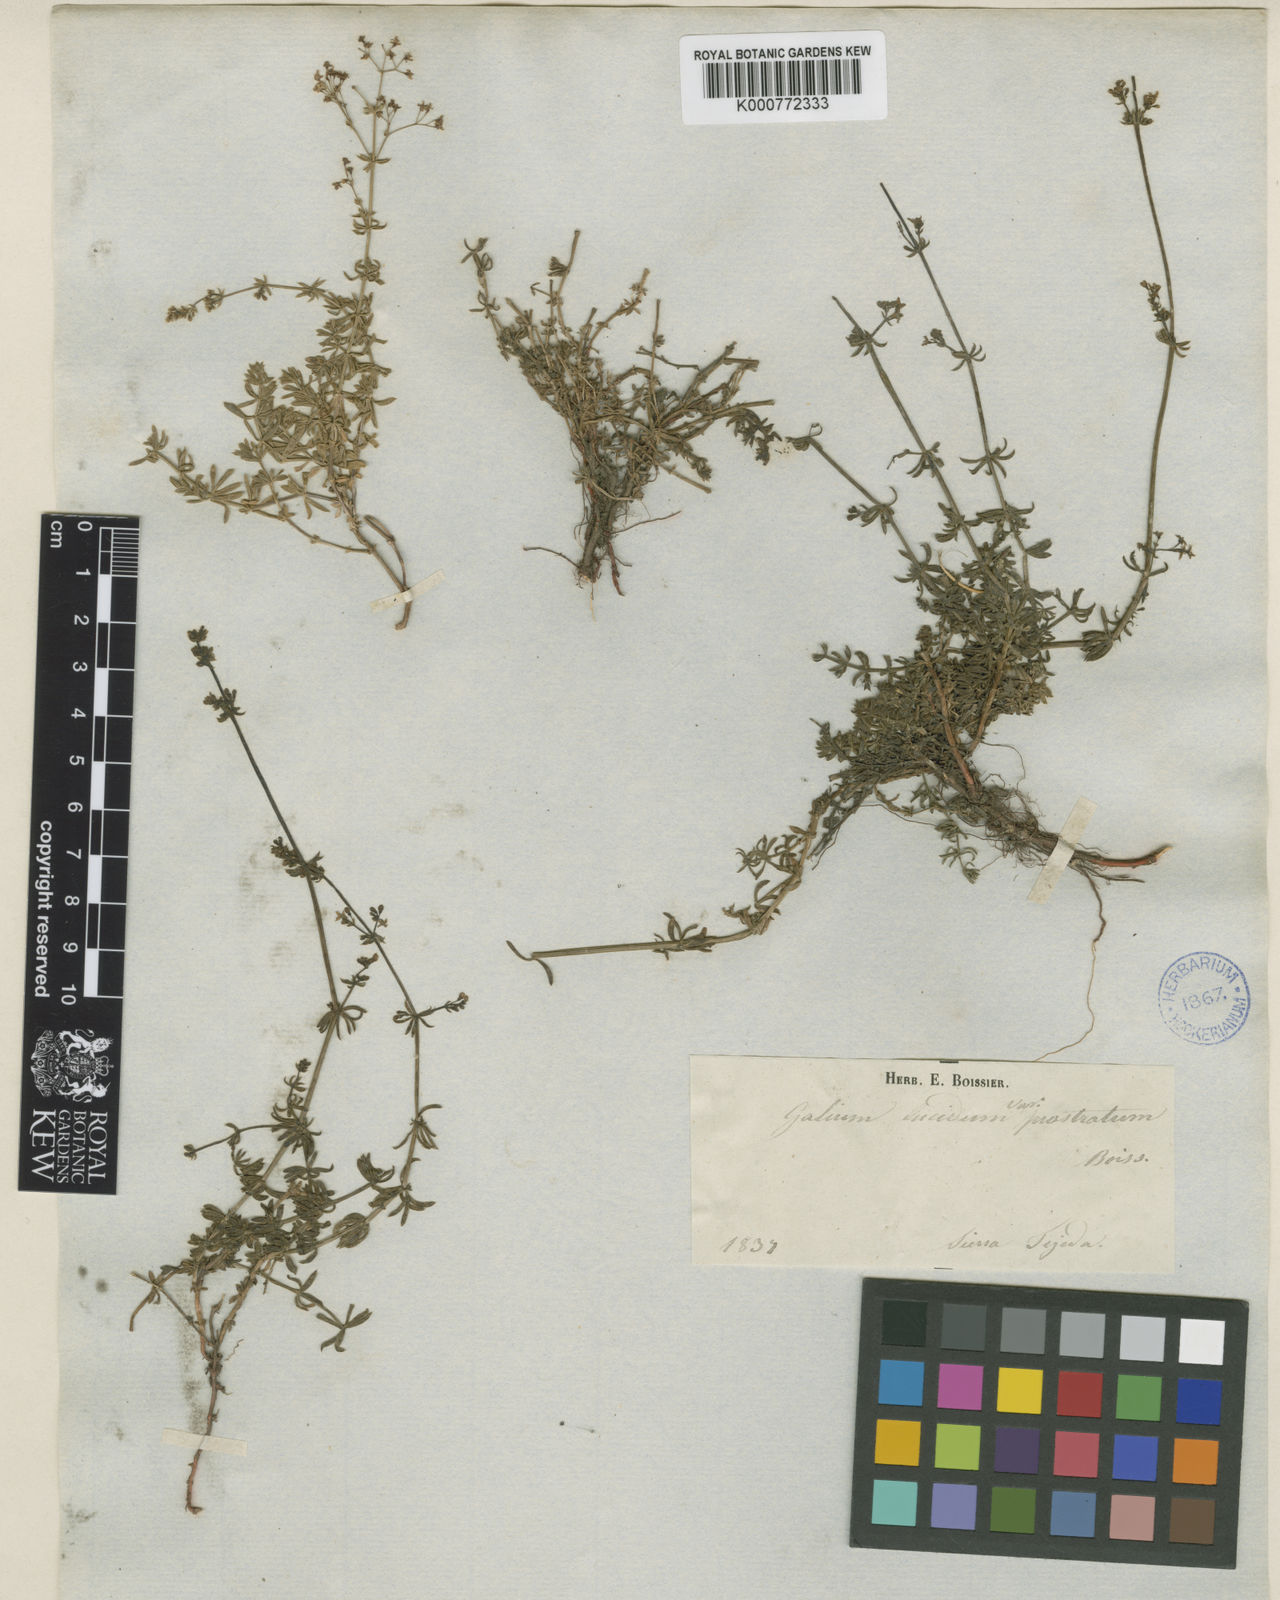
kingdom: Plantae
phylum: Tracheophyta
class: Magnoliopsida
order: Gentianales
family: Rubiaceae
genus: Galium
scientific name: Galium lucidum
